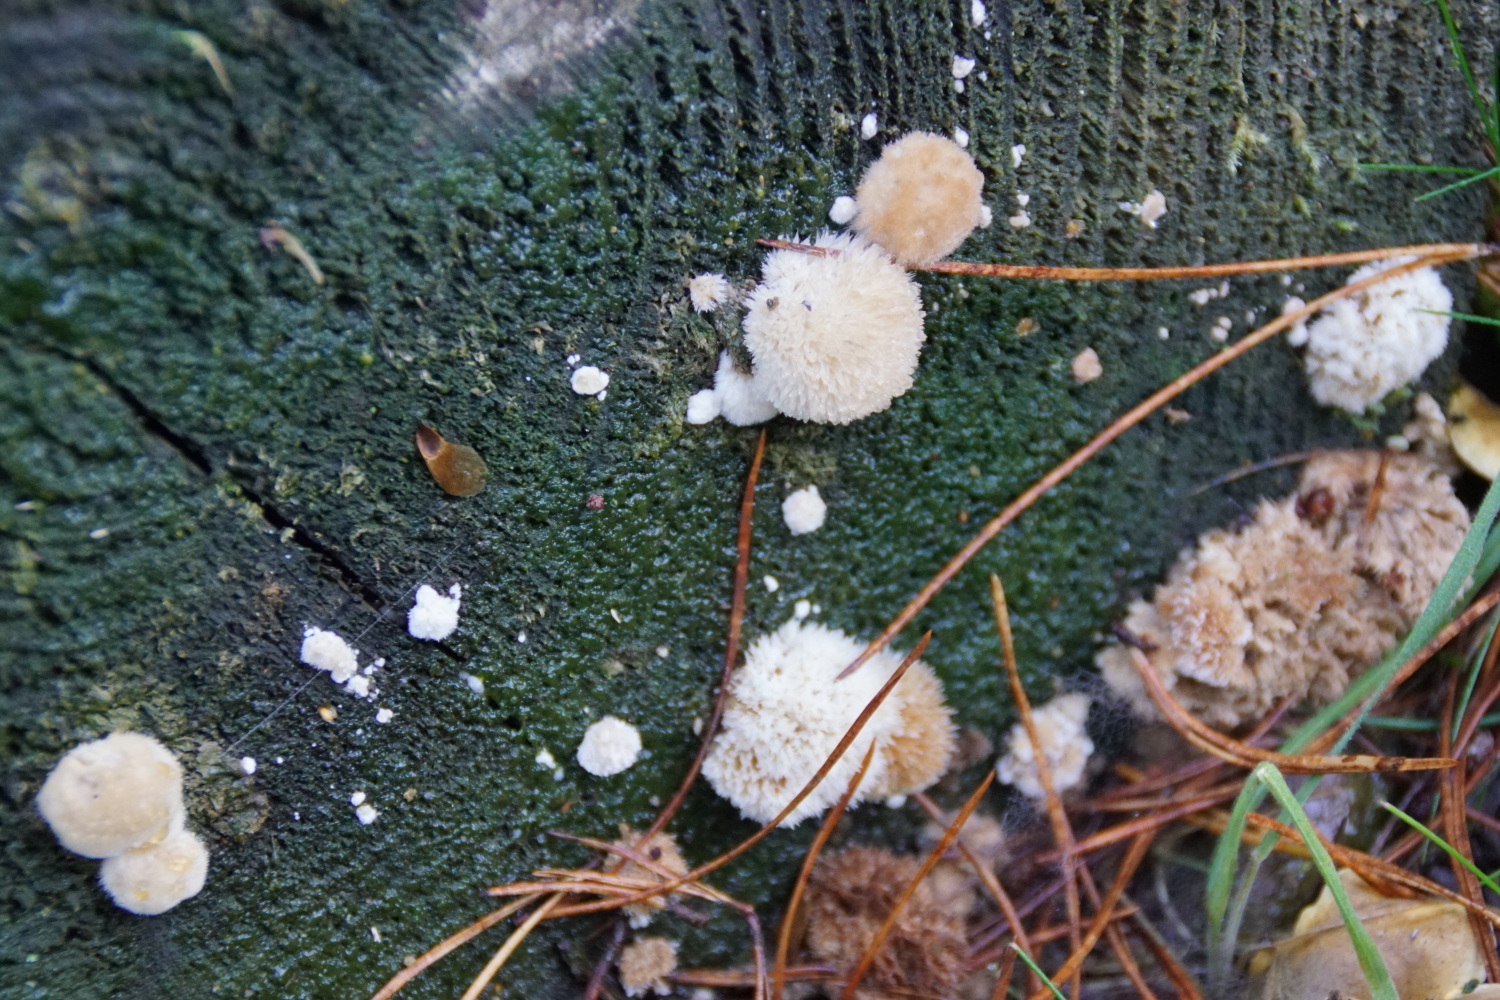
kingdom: Fungi
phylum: Basidiomycota
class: Agaricomycetes
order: Polyporales
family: Dacryobolaceae
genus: Postia
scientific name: Postia ptychogaster
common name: støvende kødporesvamp
